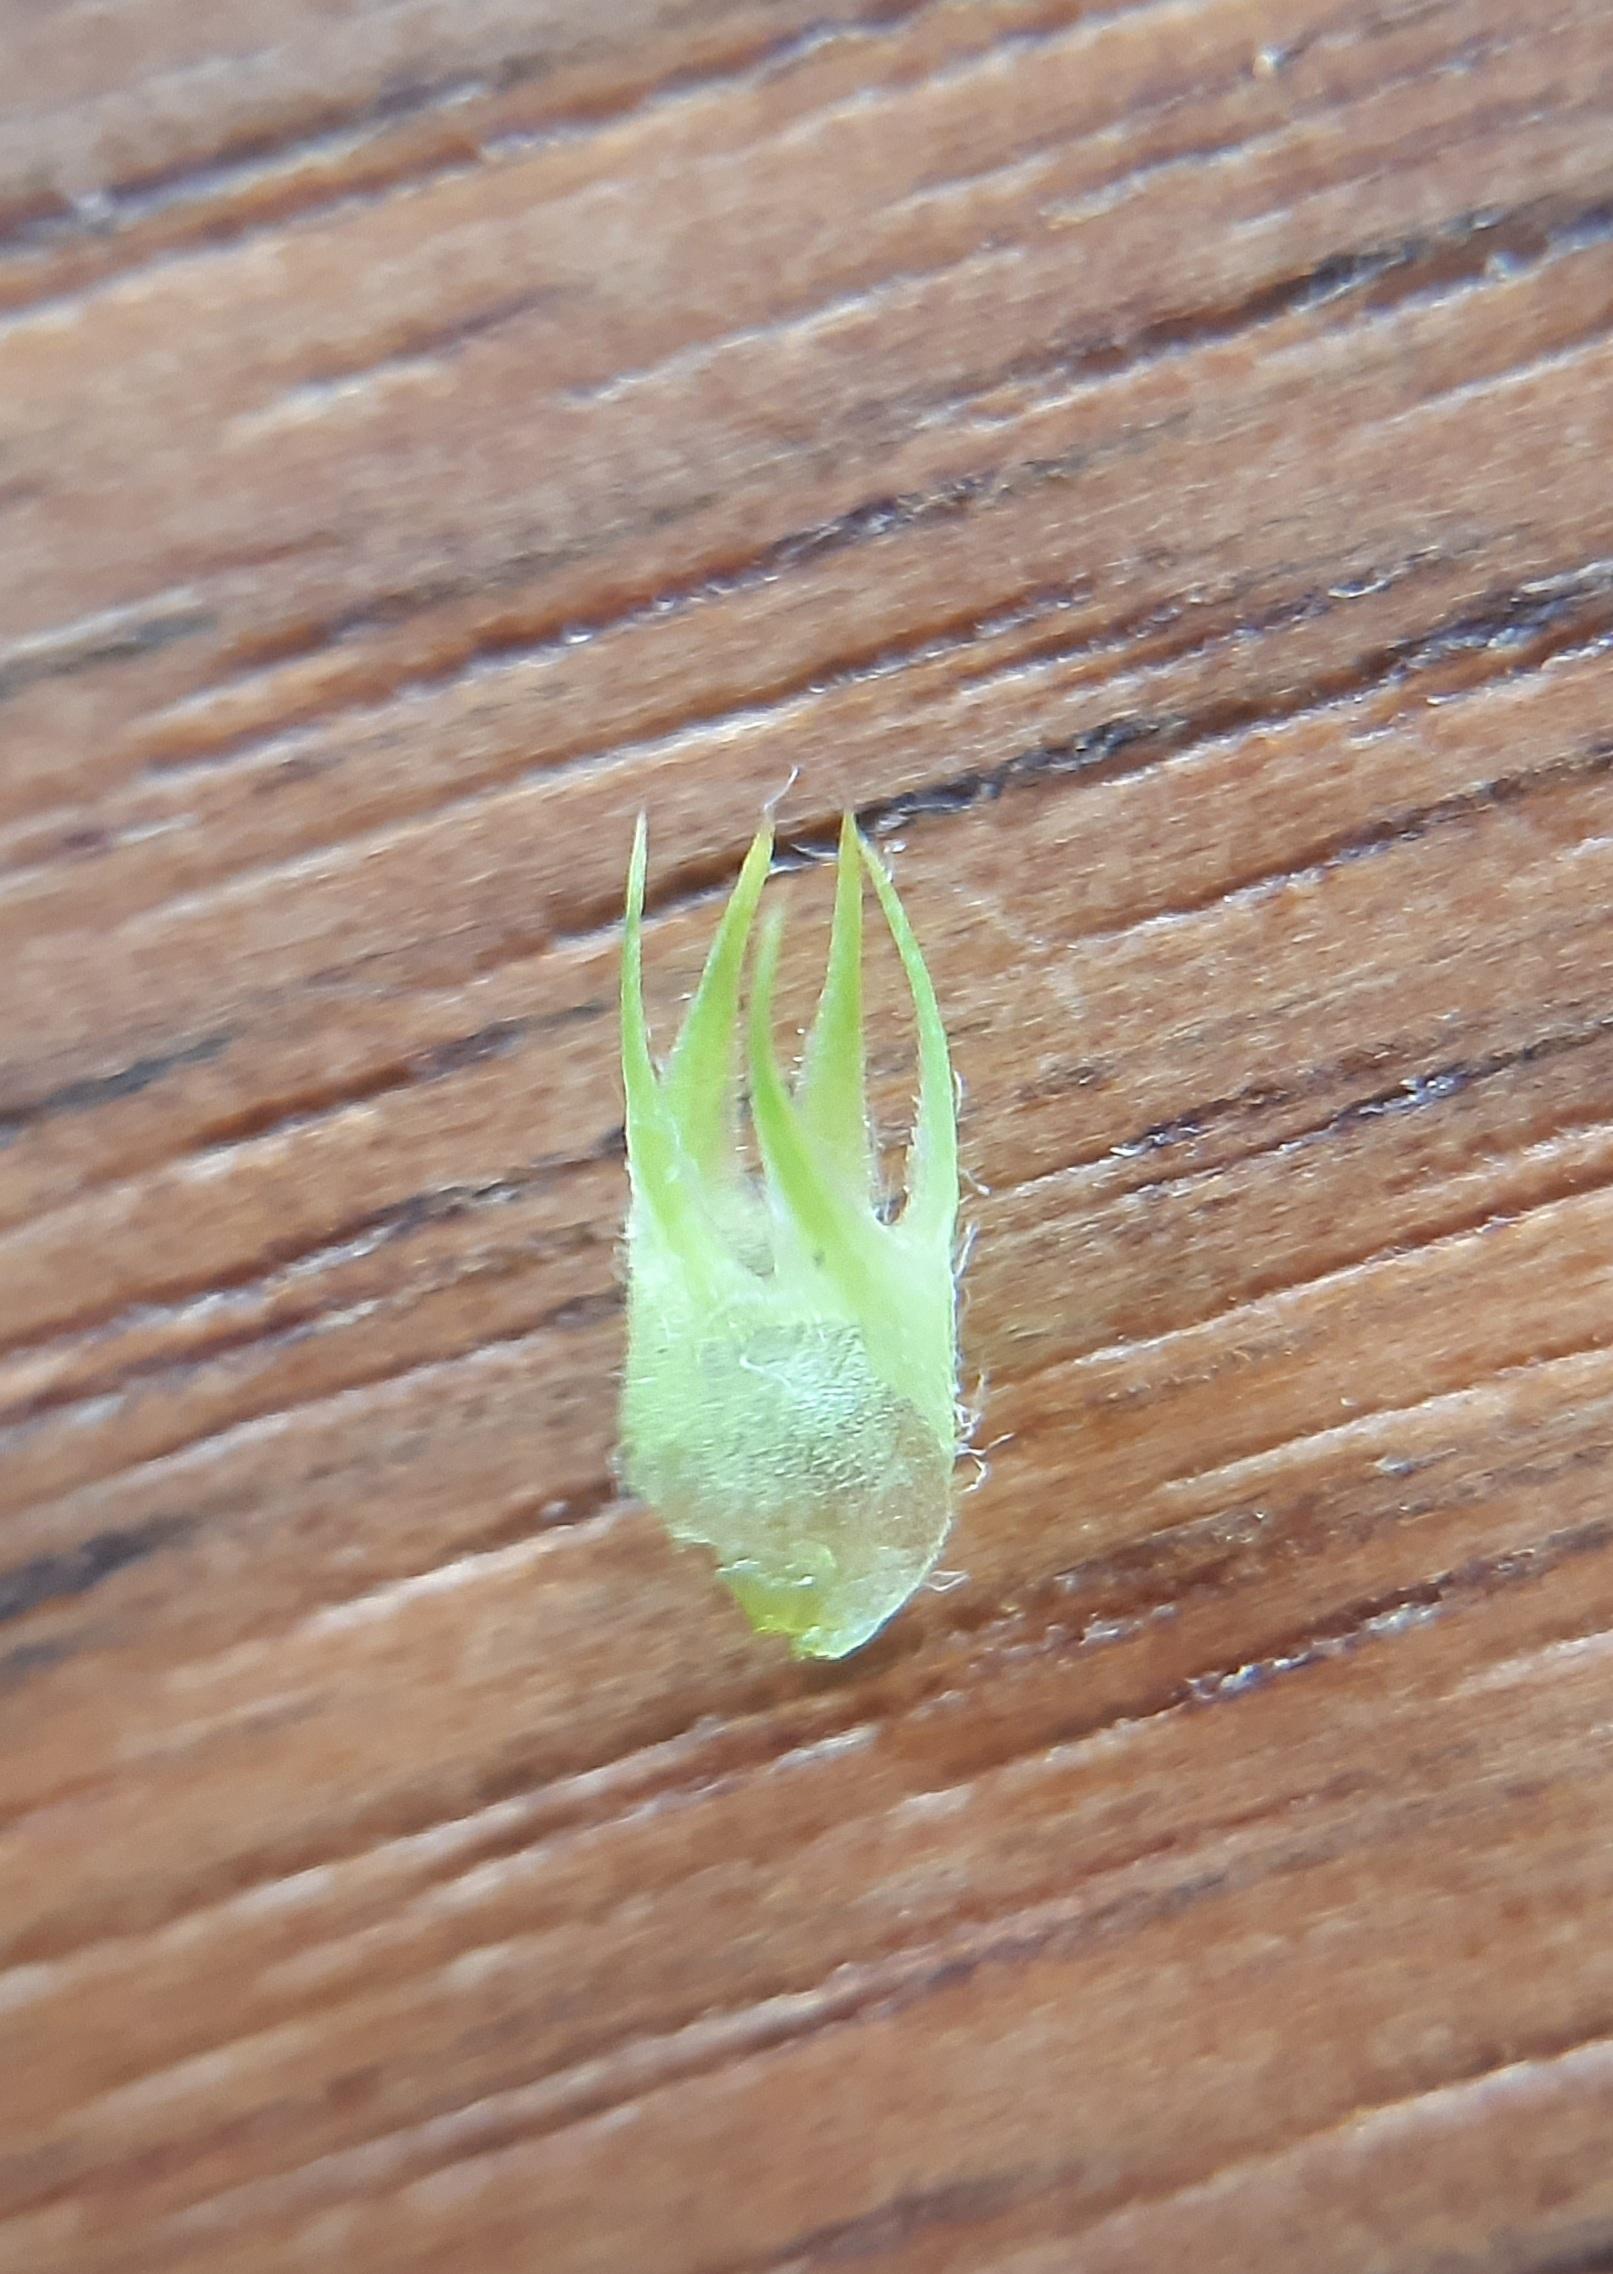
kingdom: Plantae
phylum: Tracheophyta
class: Magnoliopsida
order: Fabales
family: Fabaceae
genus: Medicago
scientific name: Medicago sativa
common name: Foderlucerne
